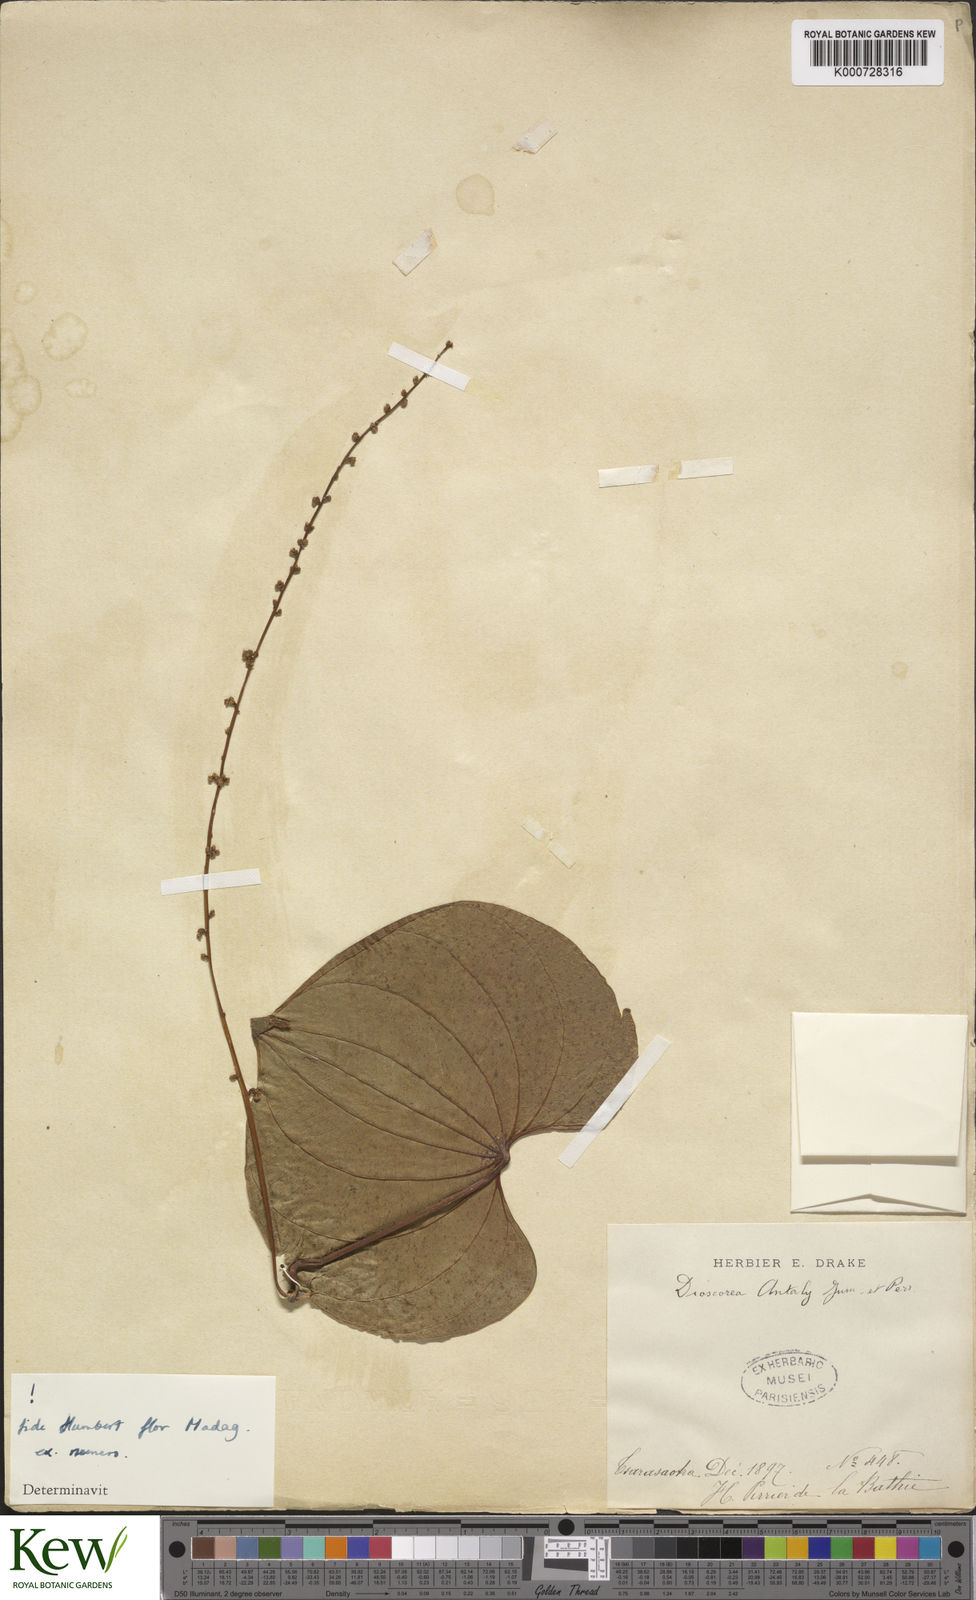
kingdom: Plantae
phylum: Tracheophyta
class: Liliopsida
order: Dioscoreales
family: Dioscoreaceae
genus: Dioscorea
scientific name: Dioscorea antaly
